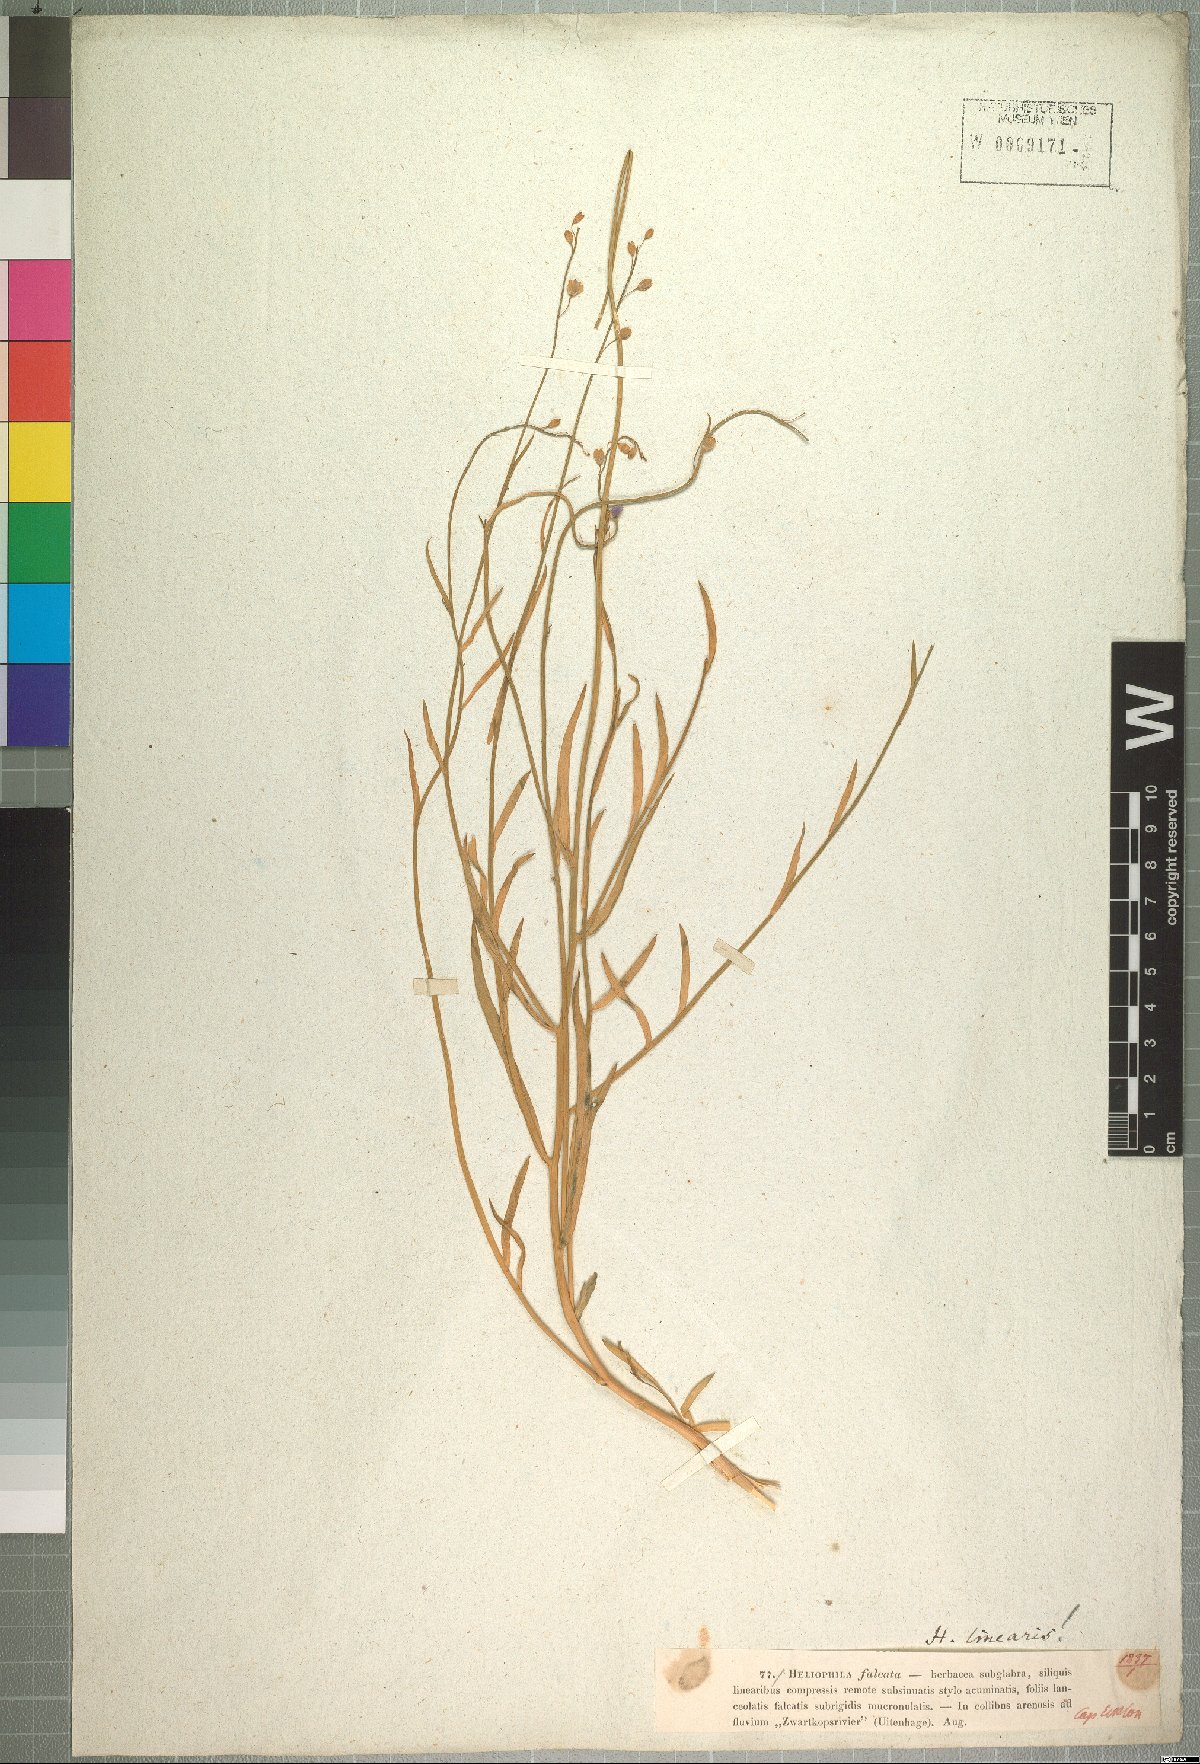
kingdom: Plantae
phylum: Tracheophyta
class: Magnoliopsida
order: Brassicales
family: Brassicaceae
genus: Heliophila
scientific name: Heliophila linearis
